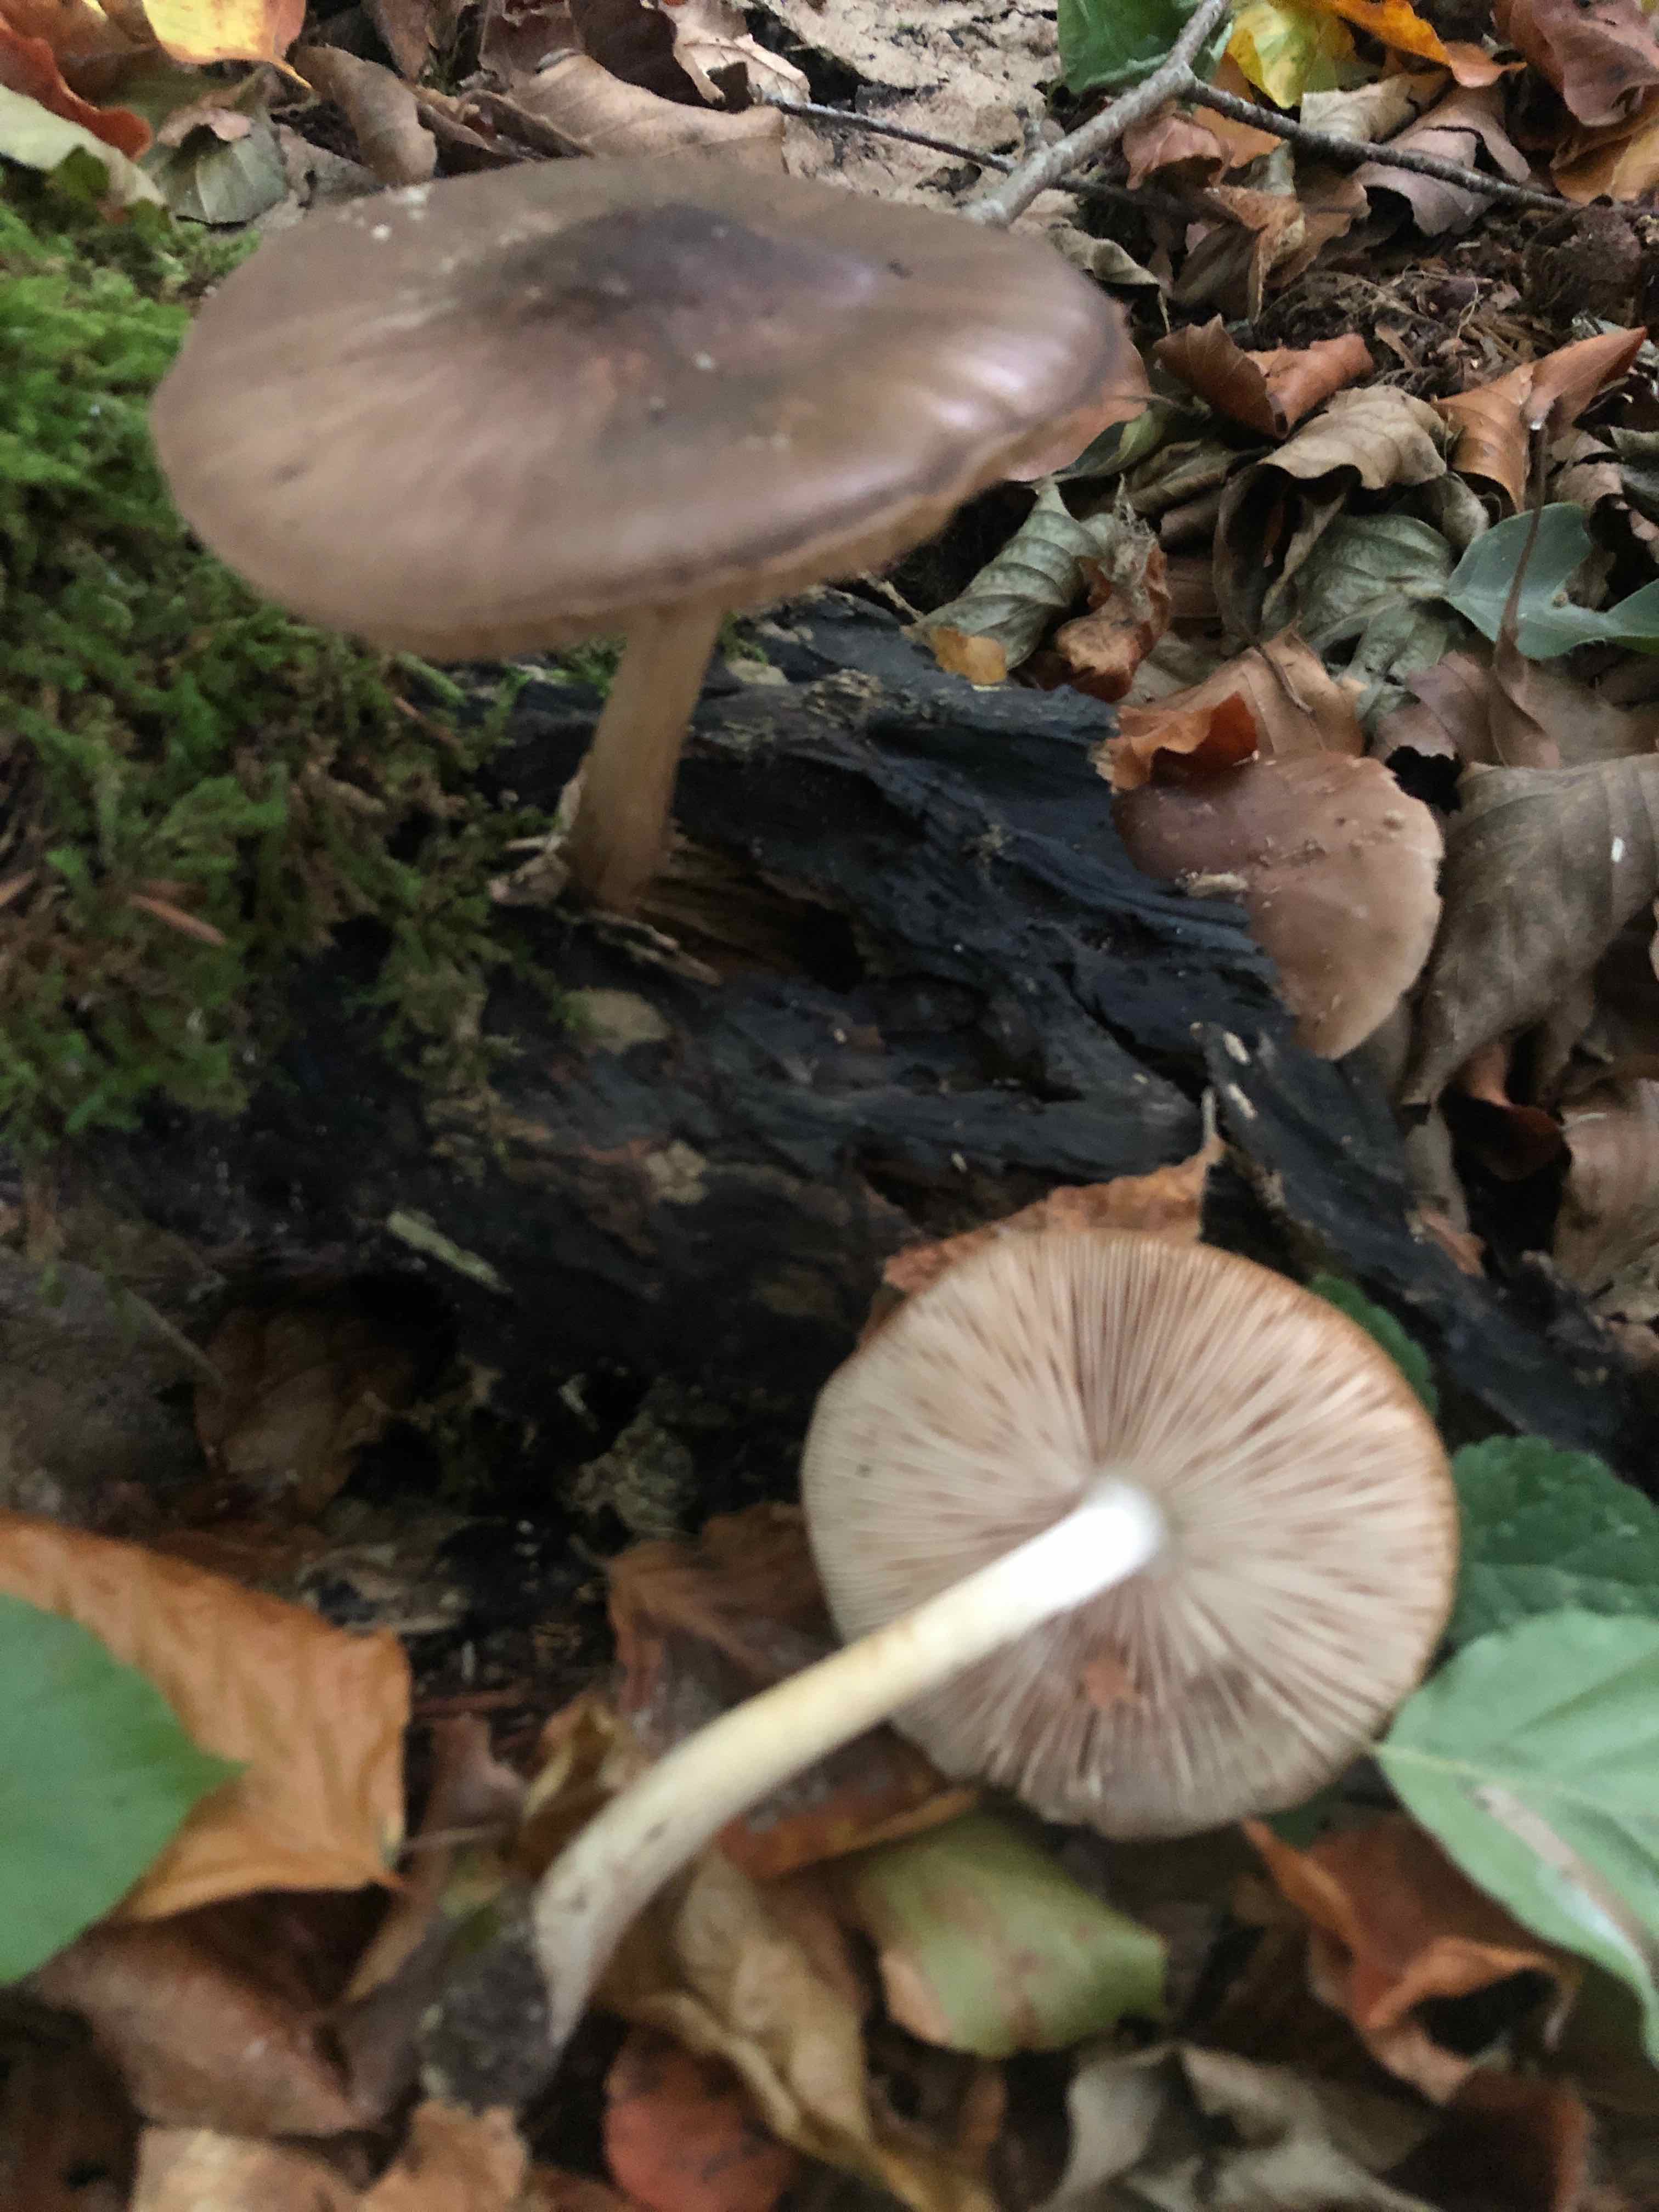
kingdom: Fungi
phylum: Basidiomycota
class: Agaricomycetes
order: Agaricales
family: Pluteaceae
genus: Pluteus
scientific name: Pluteus cervinus
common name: sodfarvet skærmhat
